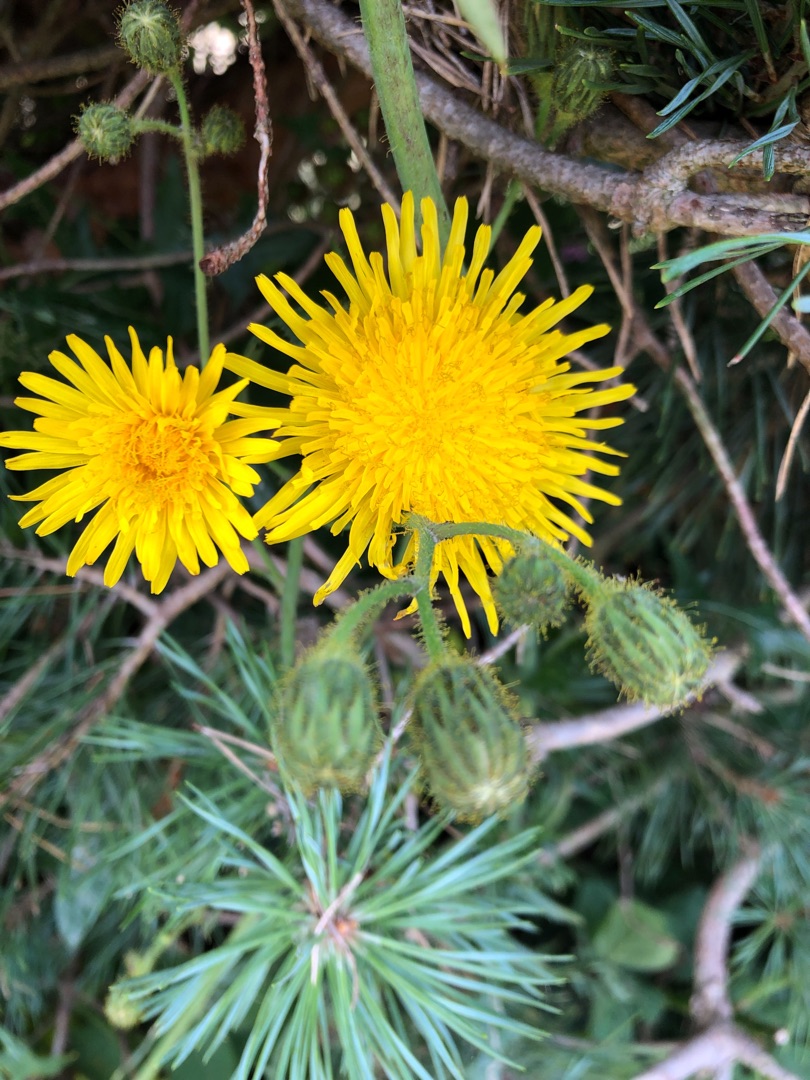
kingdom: Plantae
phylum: Tracheophyta
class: Magnoliopsida
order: Asterales
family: Asteraceae
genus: Sonchus
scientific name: Sonchus arvensis
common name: Ager-svinemælk
